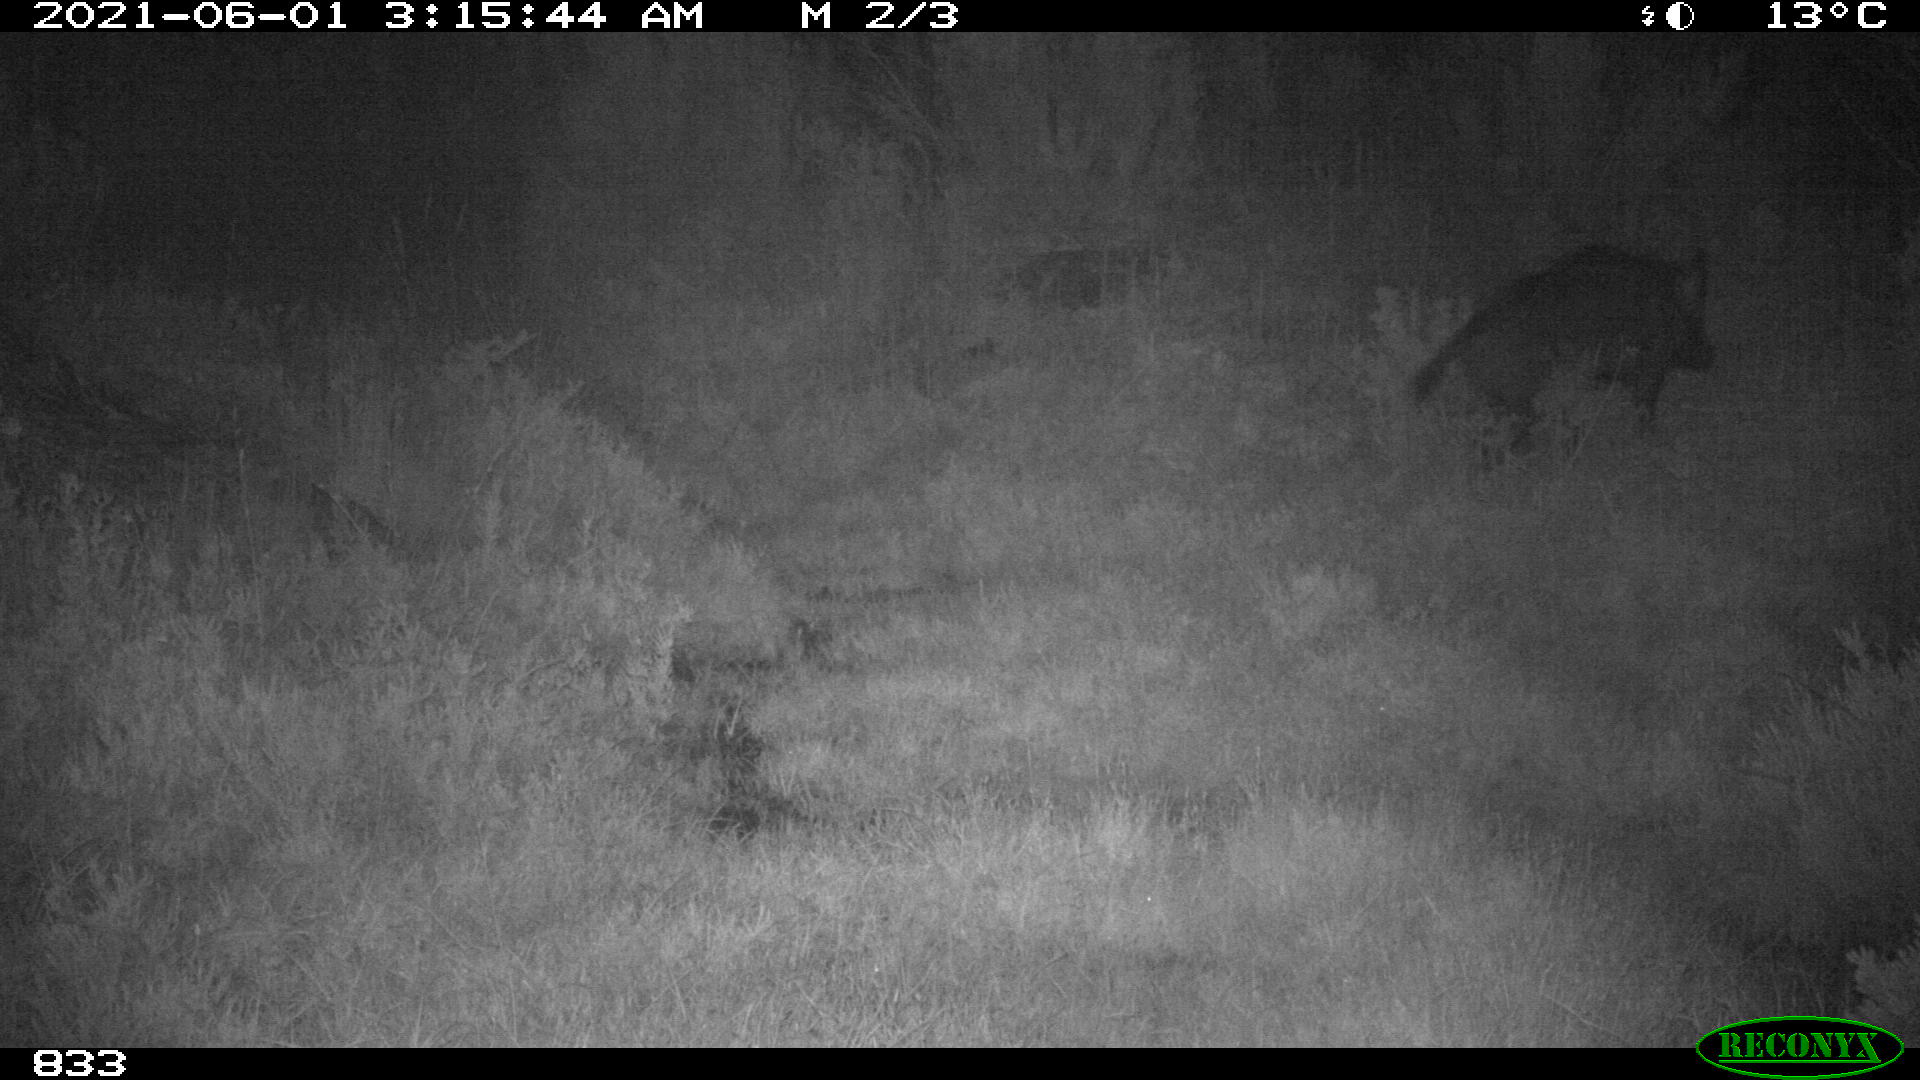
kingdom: Animalia
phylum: Chordata
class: Mammalia
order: Artiodactyla
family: Suidae
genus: Sus
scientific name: Sus scrofa
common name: Wild boar
